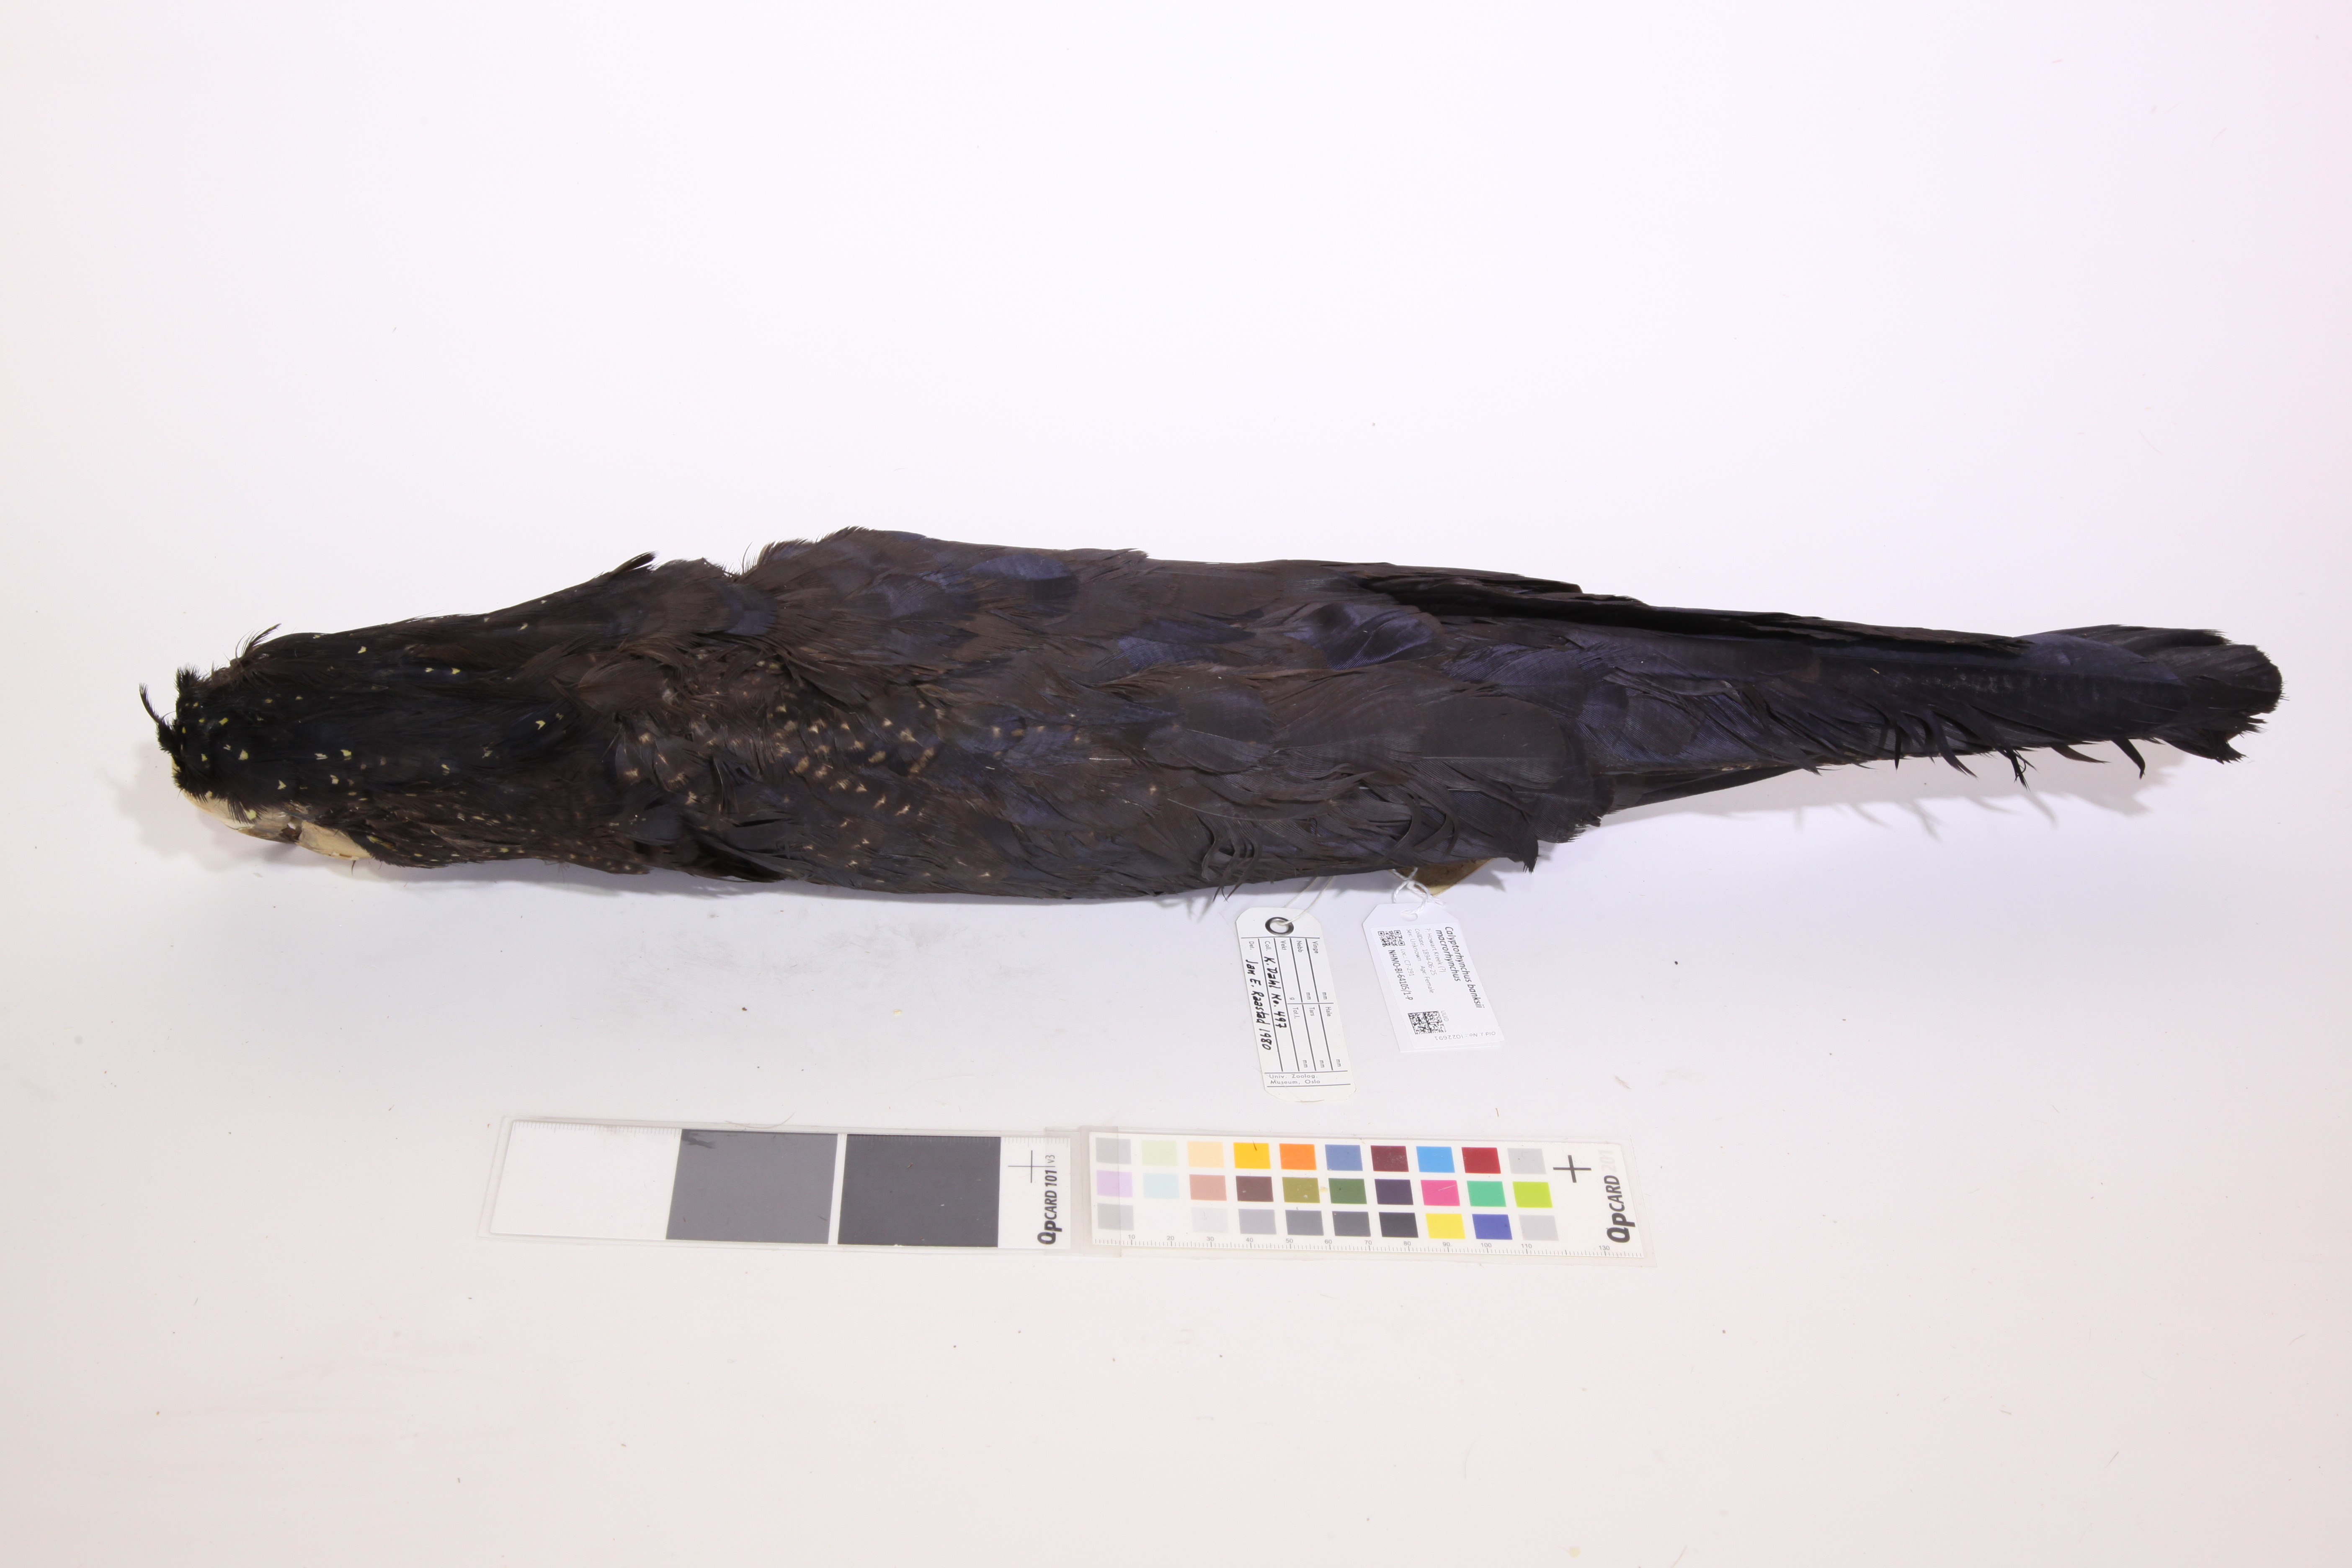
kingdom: Animalia
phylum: Chordata
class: Aves
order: Psittaciformes
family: Psittacidae
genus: Calyptorhynchus
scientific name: Calyptorhynchus banksii
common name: Red-tailed black cockatoo
